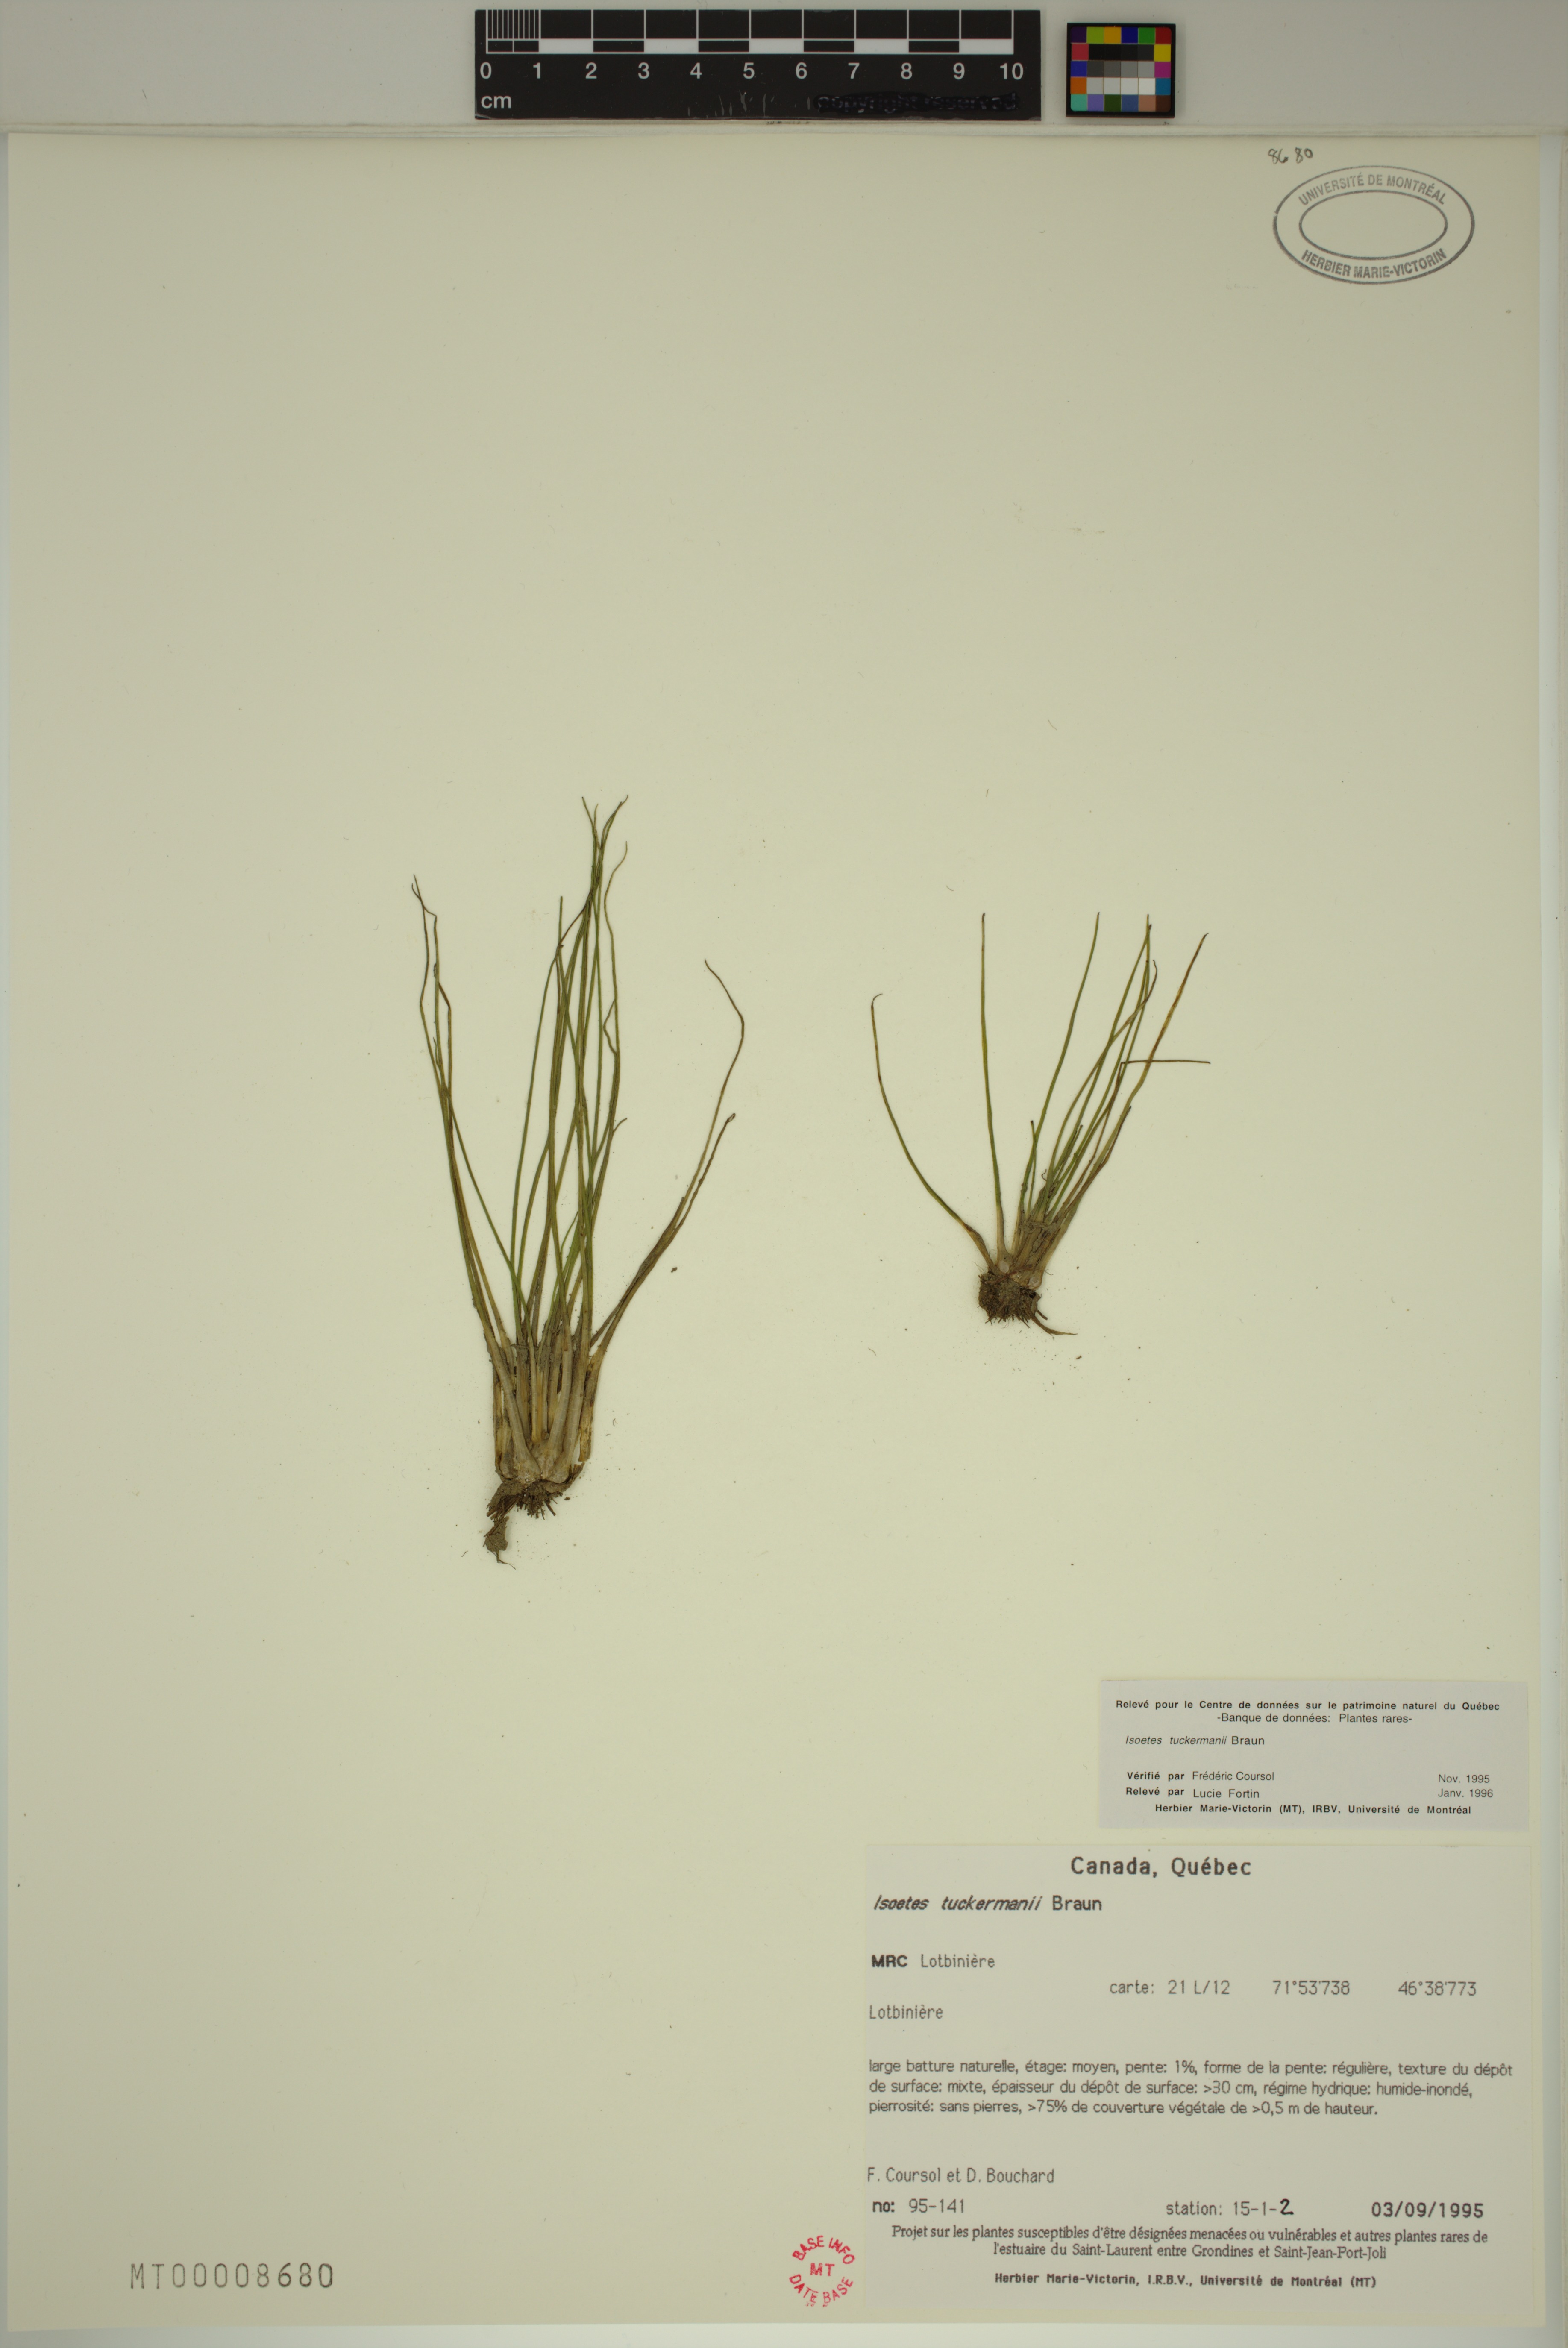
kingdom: Plantae
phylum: Tracheophyta
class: Lycopodiopsida
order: Isoetales
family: Isoetaceae
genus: Isoetes
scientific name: Isoetes laurentiana
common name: St. lawrence quillwort
